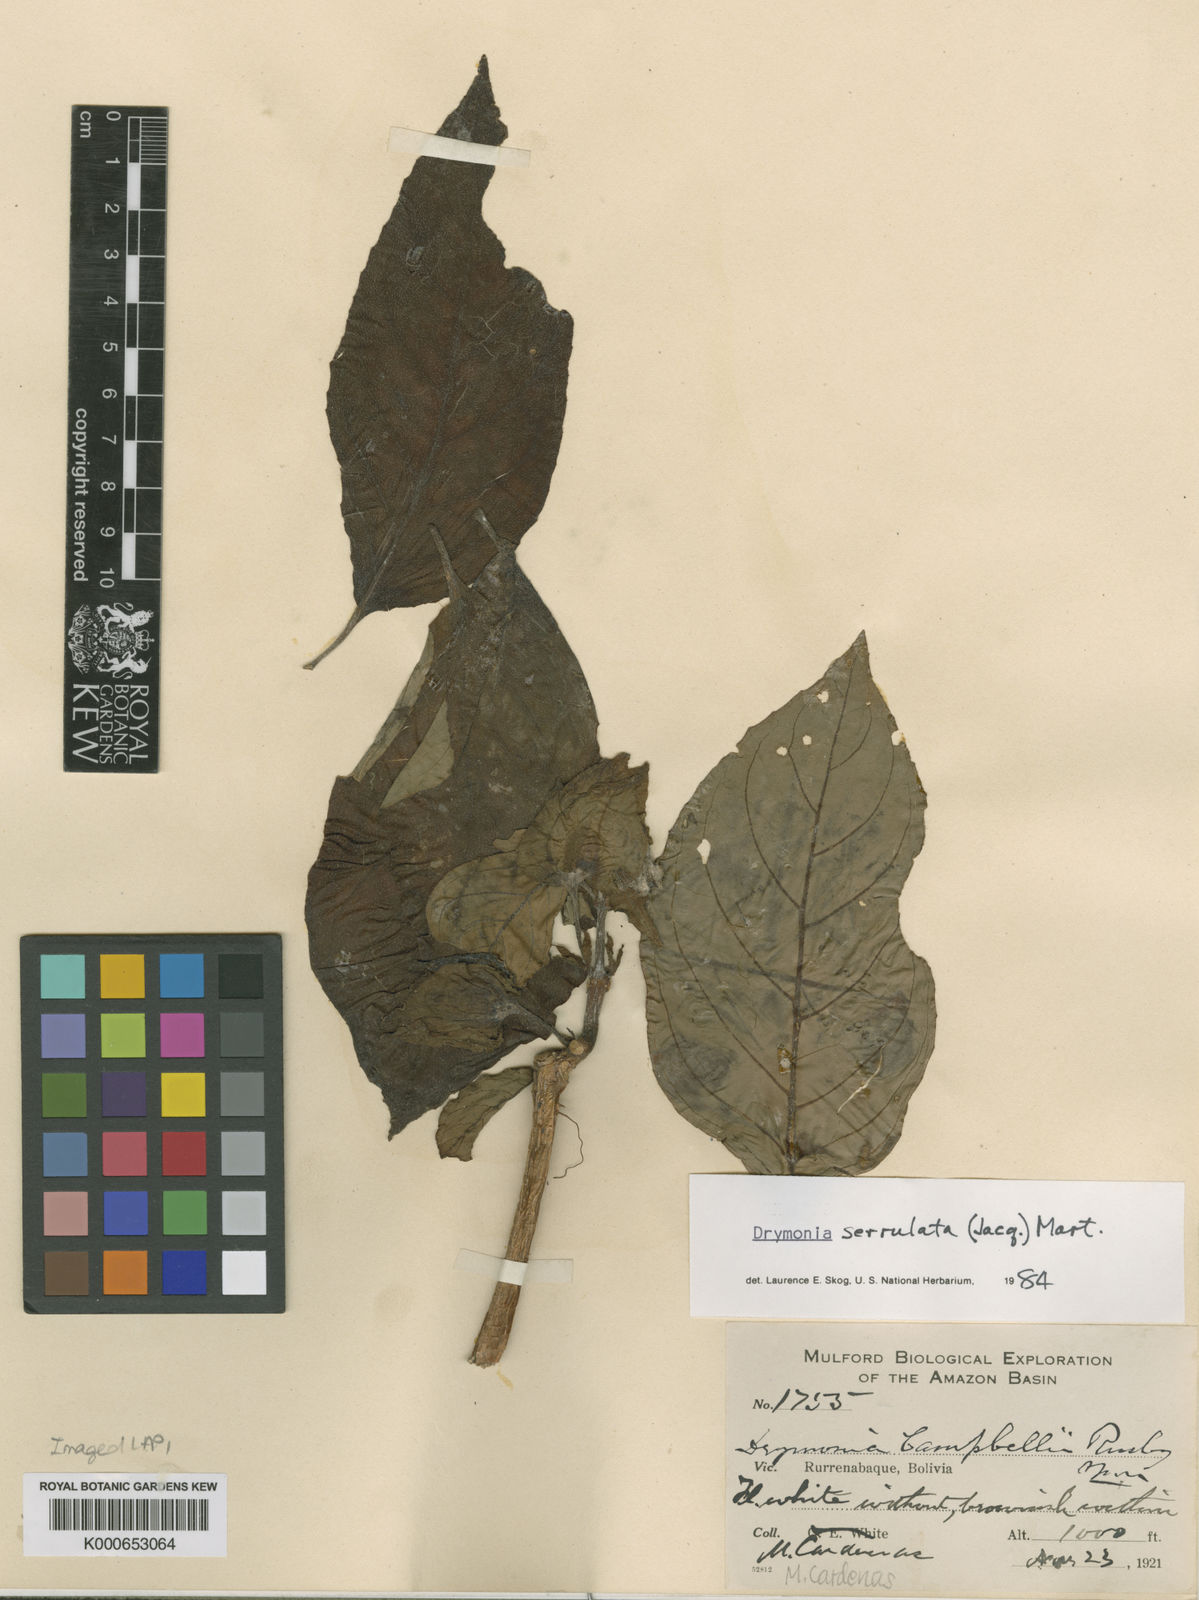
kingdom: Plantae
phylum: Tracheophyta
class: Magnoliopsida
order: Lamiales
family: Gesneriaceae
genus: Drymonia
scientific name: Drymonia serrulata
